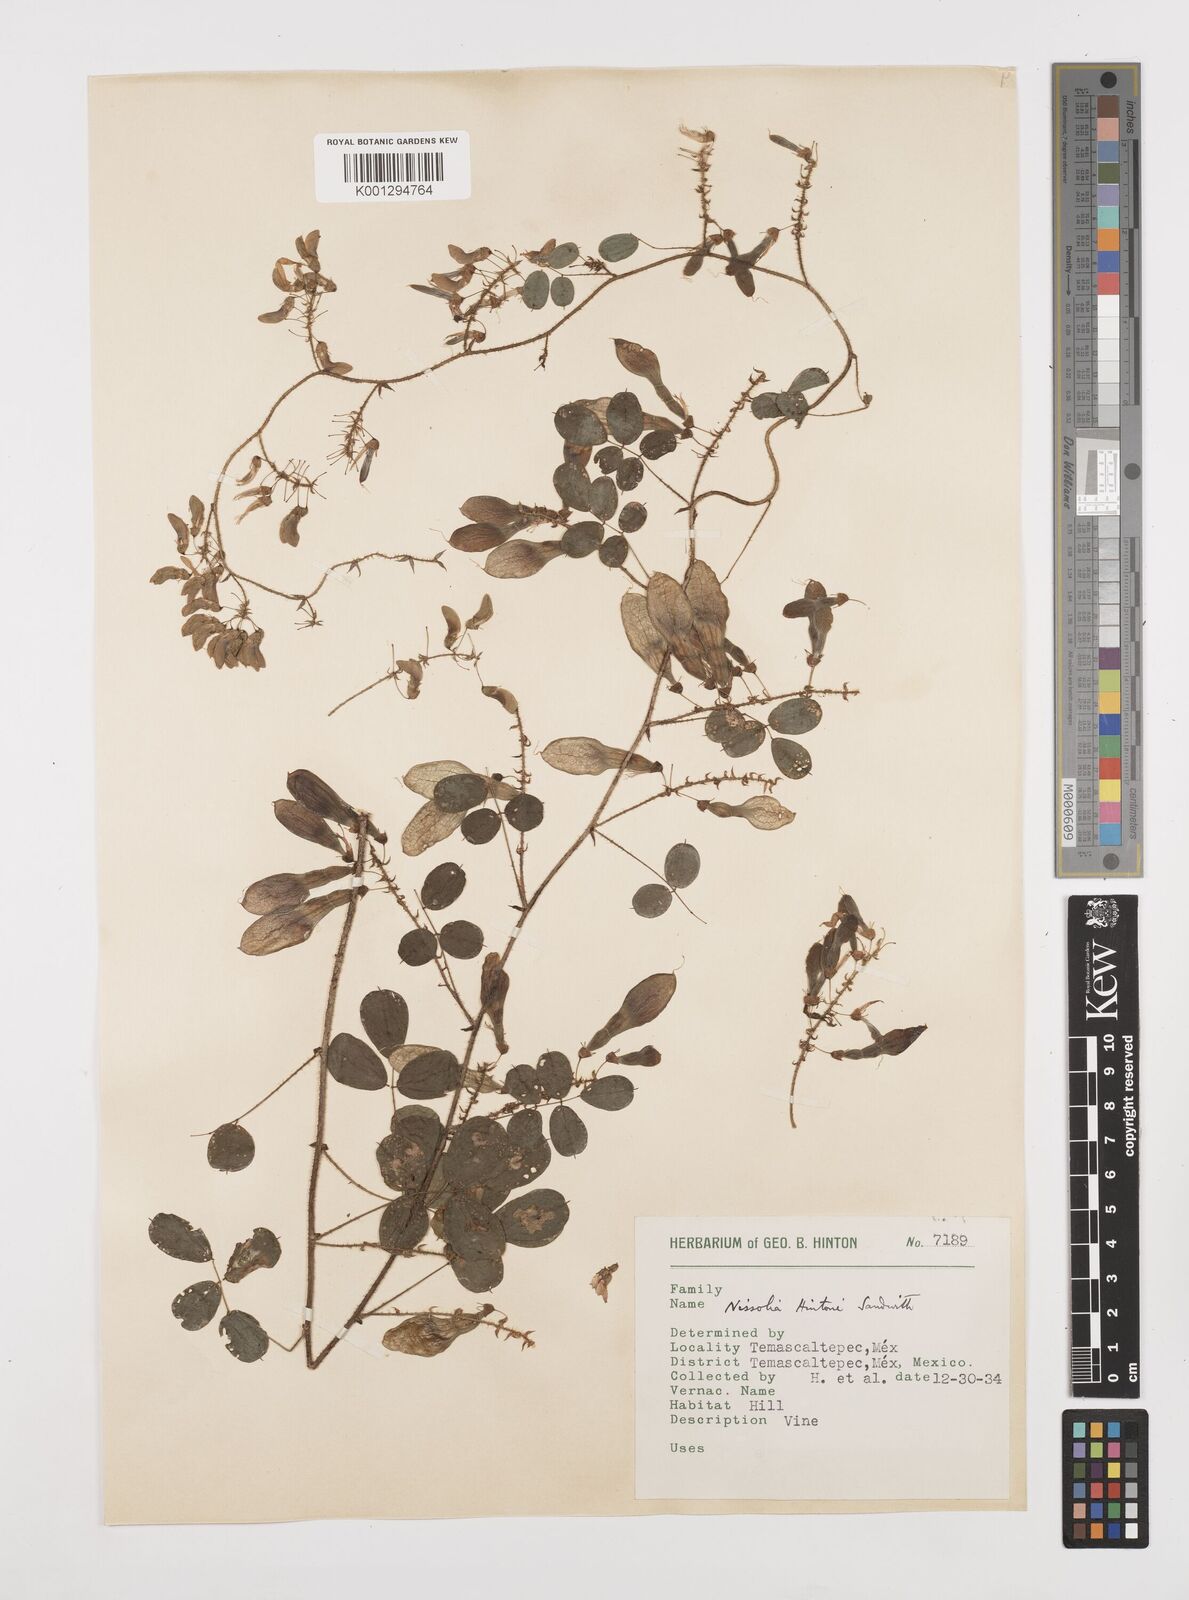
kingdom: Plantae
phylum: Tracheophyta
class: Magnoliopsida
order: Fabales
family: Fabaceae
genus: Nissolia
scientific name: Nissolia hintonii
